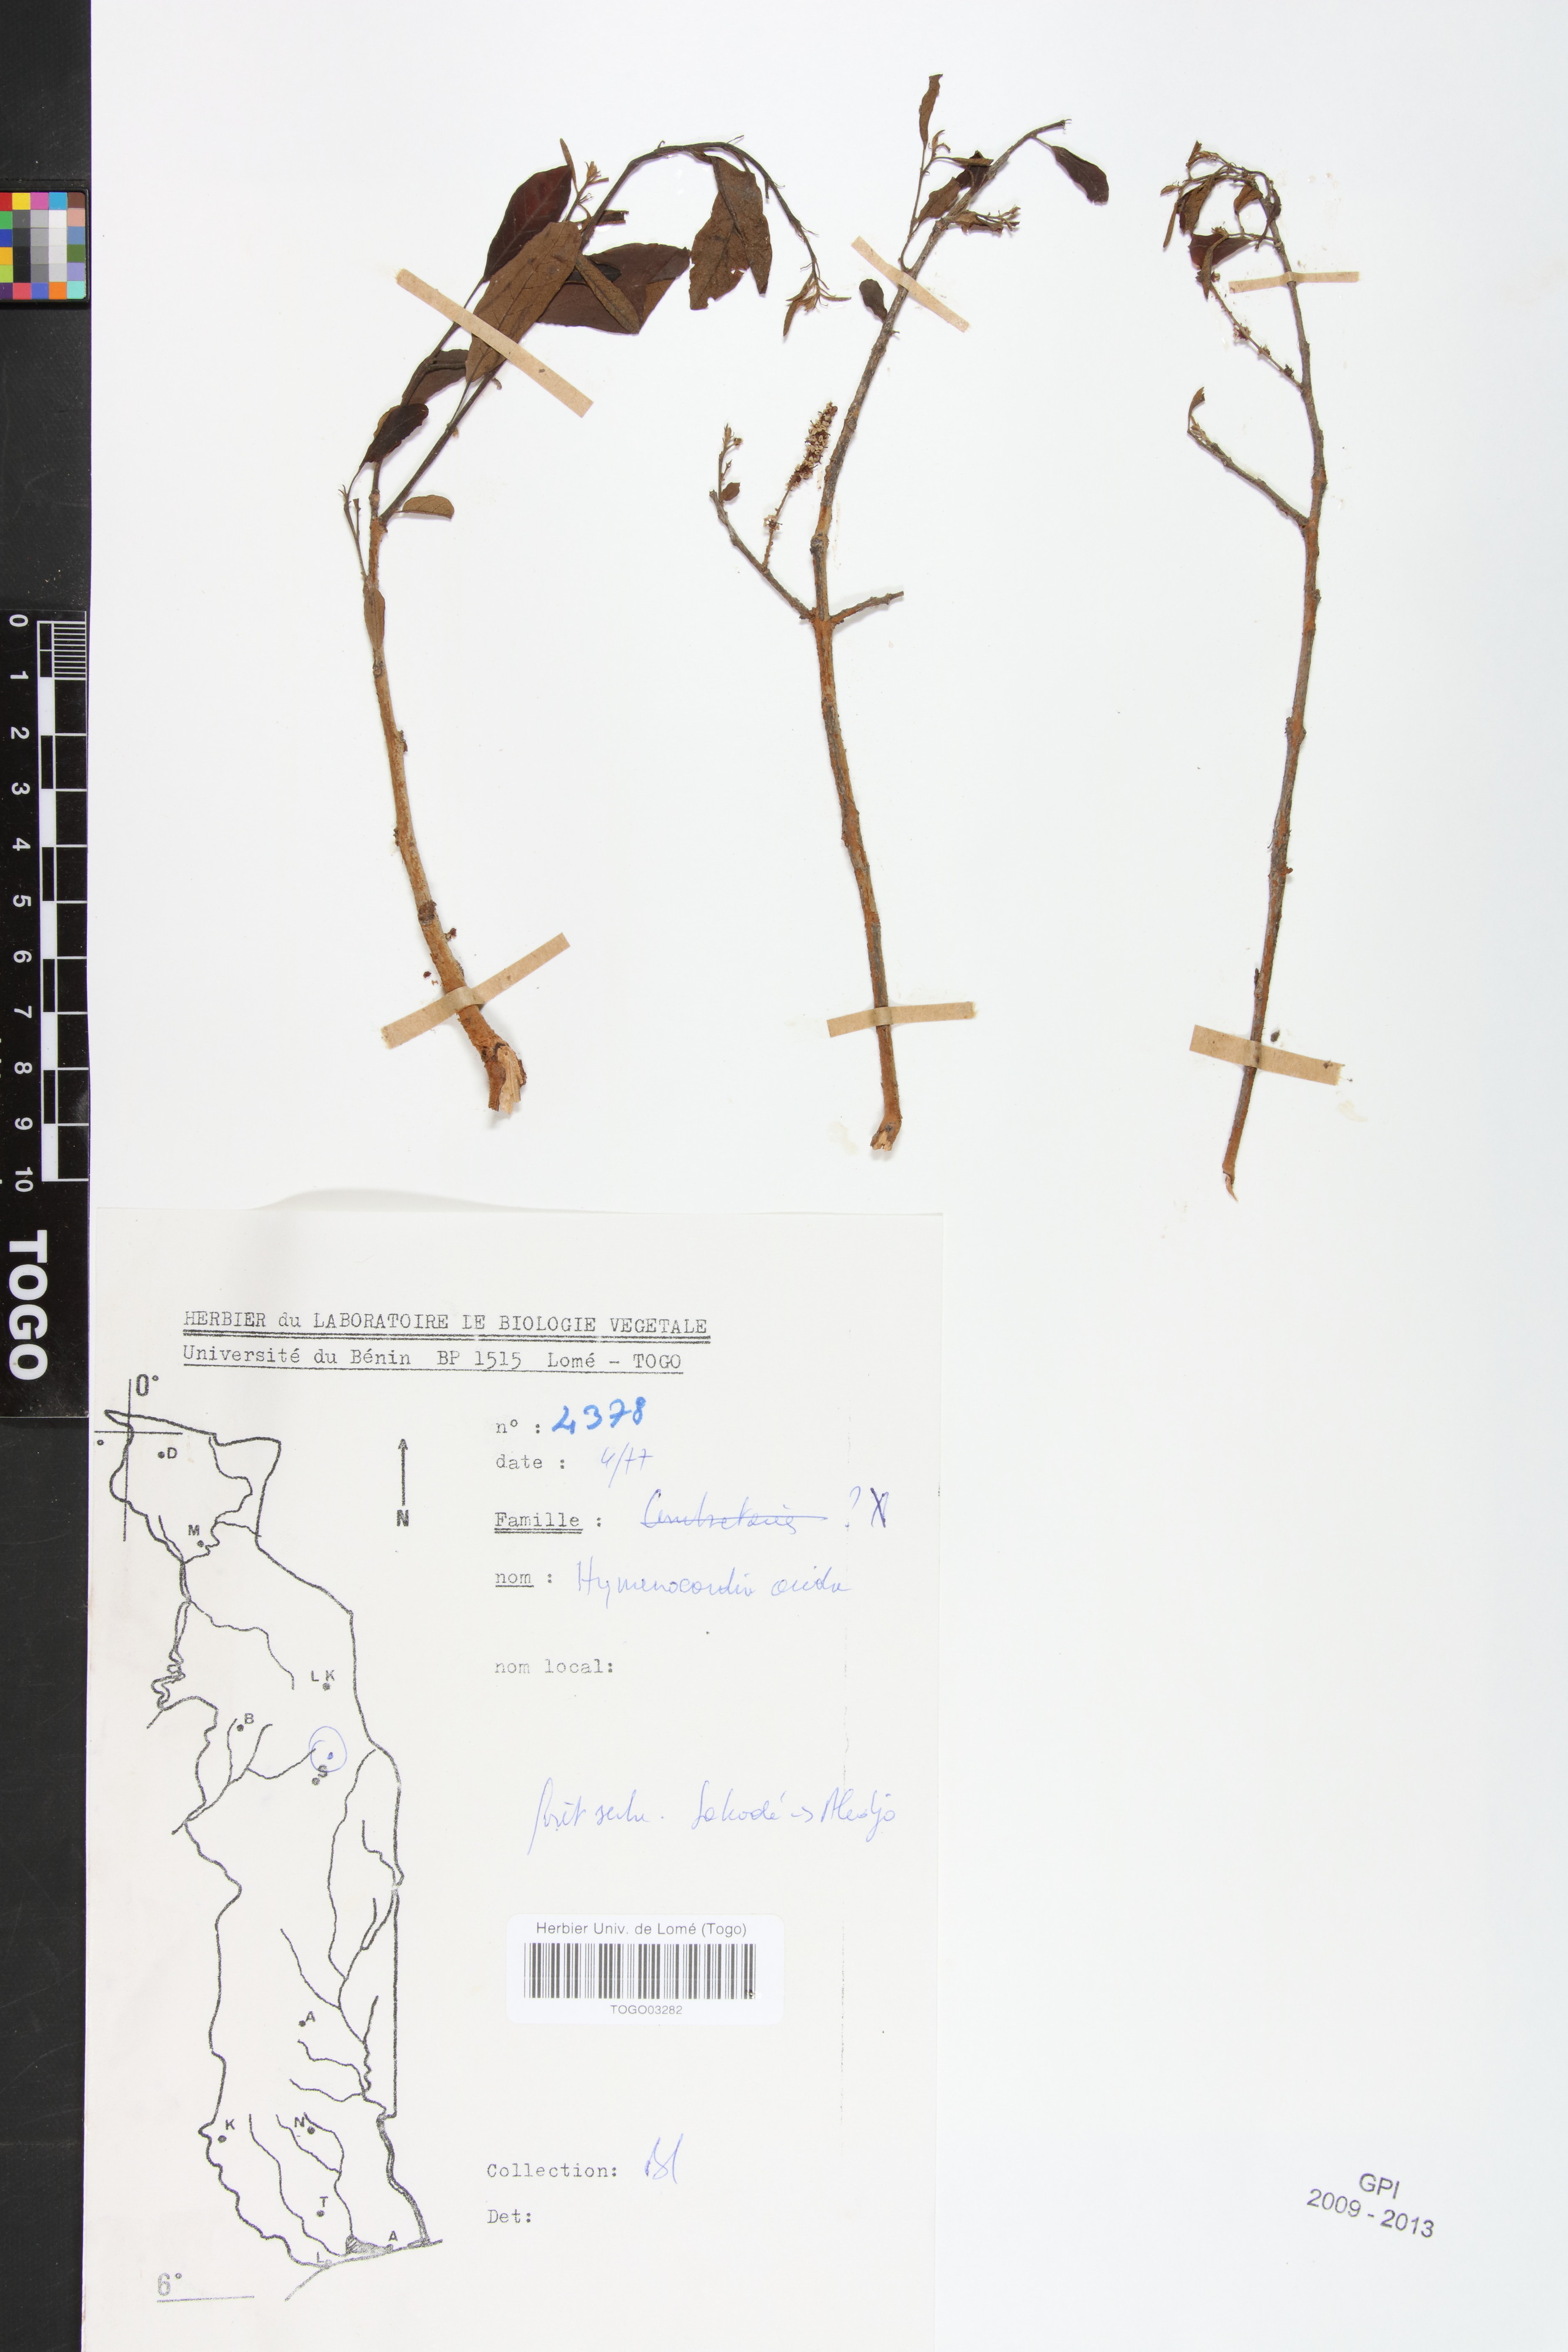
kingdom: Plantae
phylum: Tracheophyta
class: Magnoliopsida
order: Malpighiales
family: Phyllanthaceae
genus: Hymenocardia
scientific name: Hymenocardia acida
